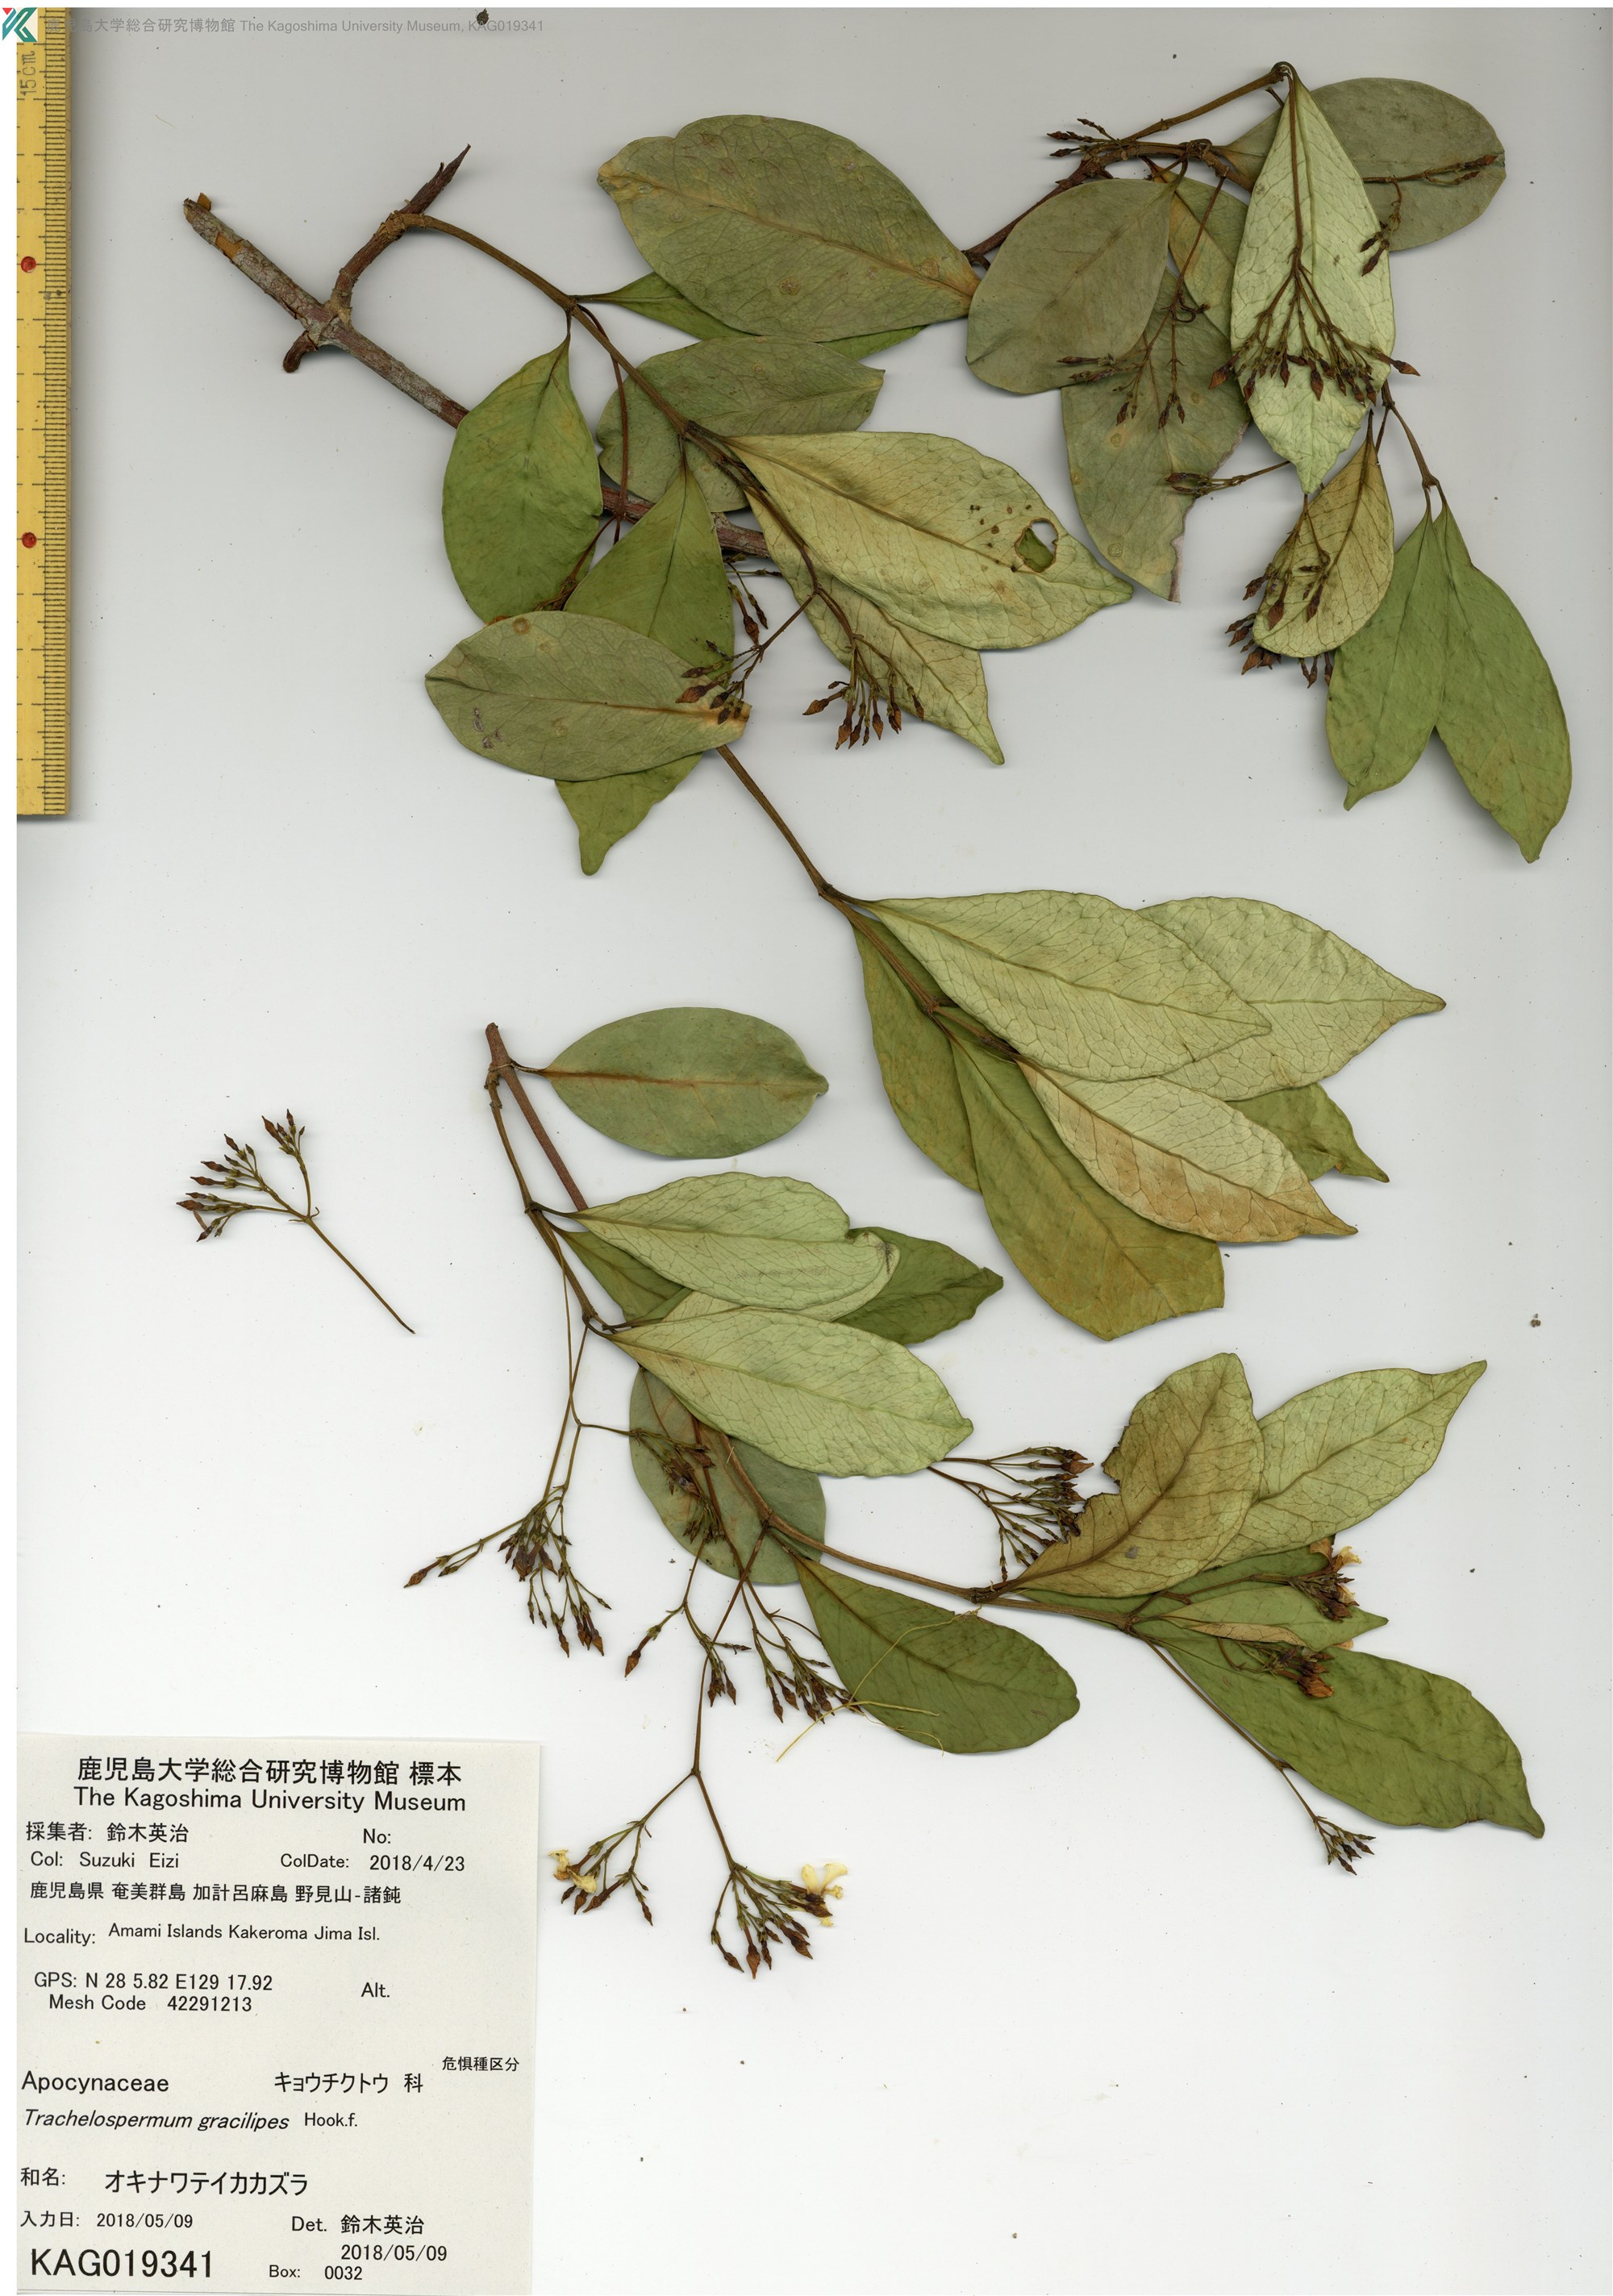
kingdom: Plantae
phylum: Tracheophyta
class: Magnoliopsida
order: Gentianales
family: Apocynaceae
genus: Trachelospermum
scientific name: Trachelospermum gracilipes
